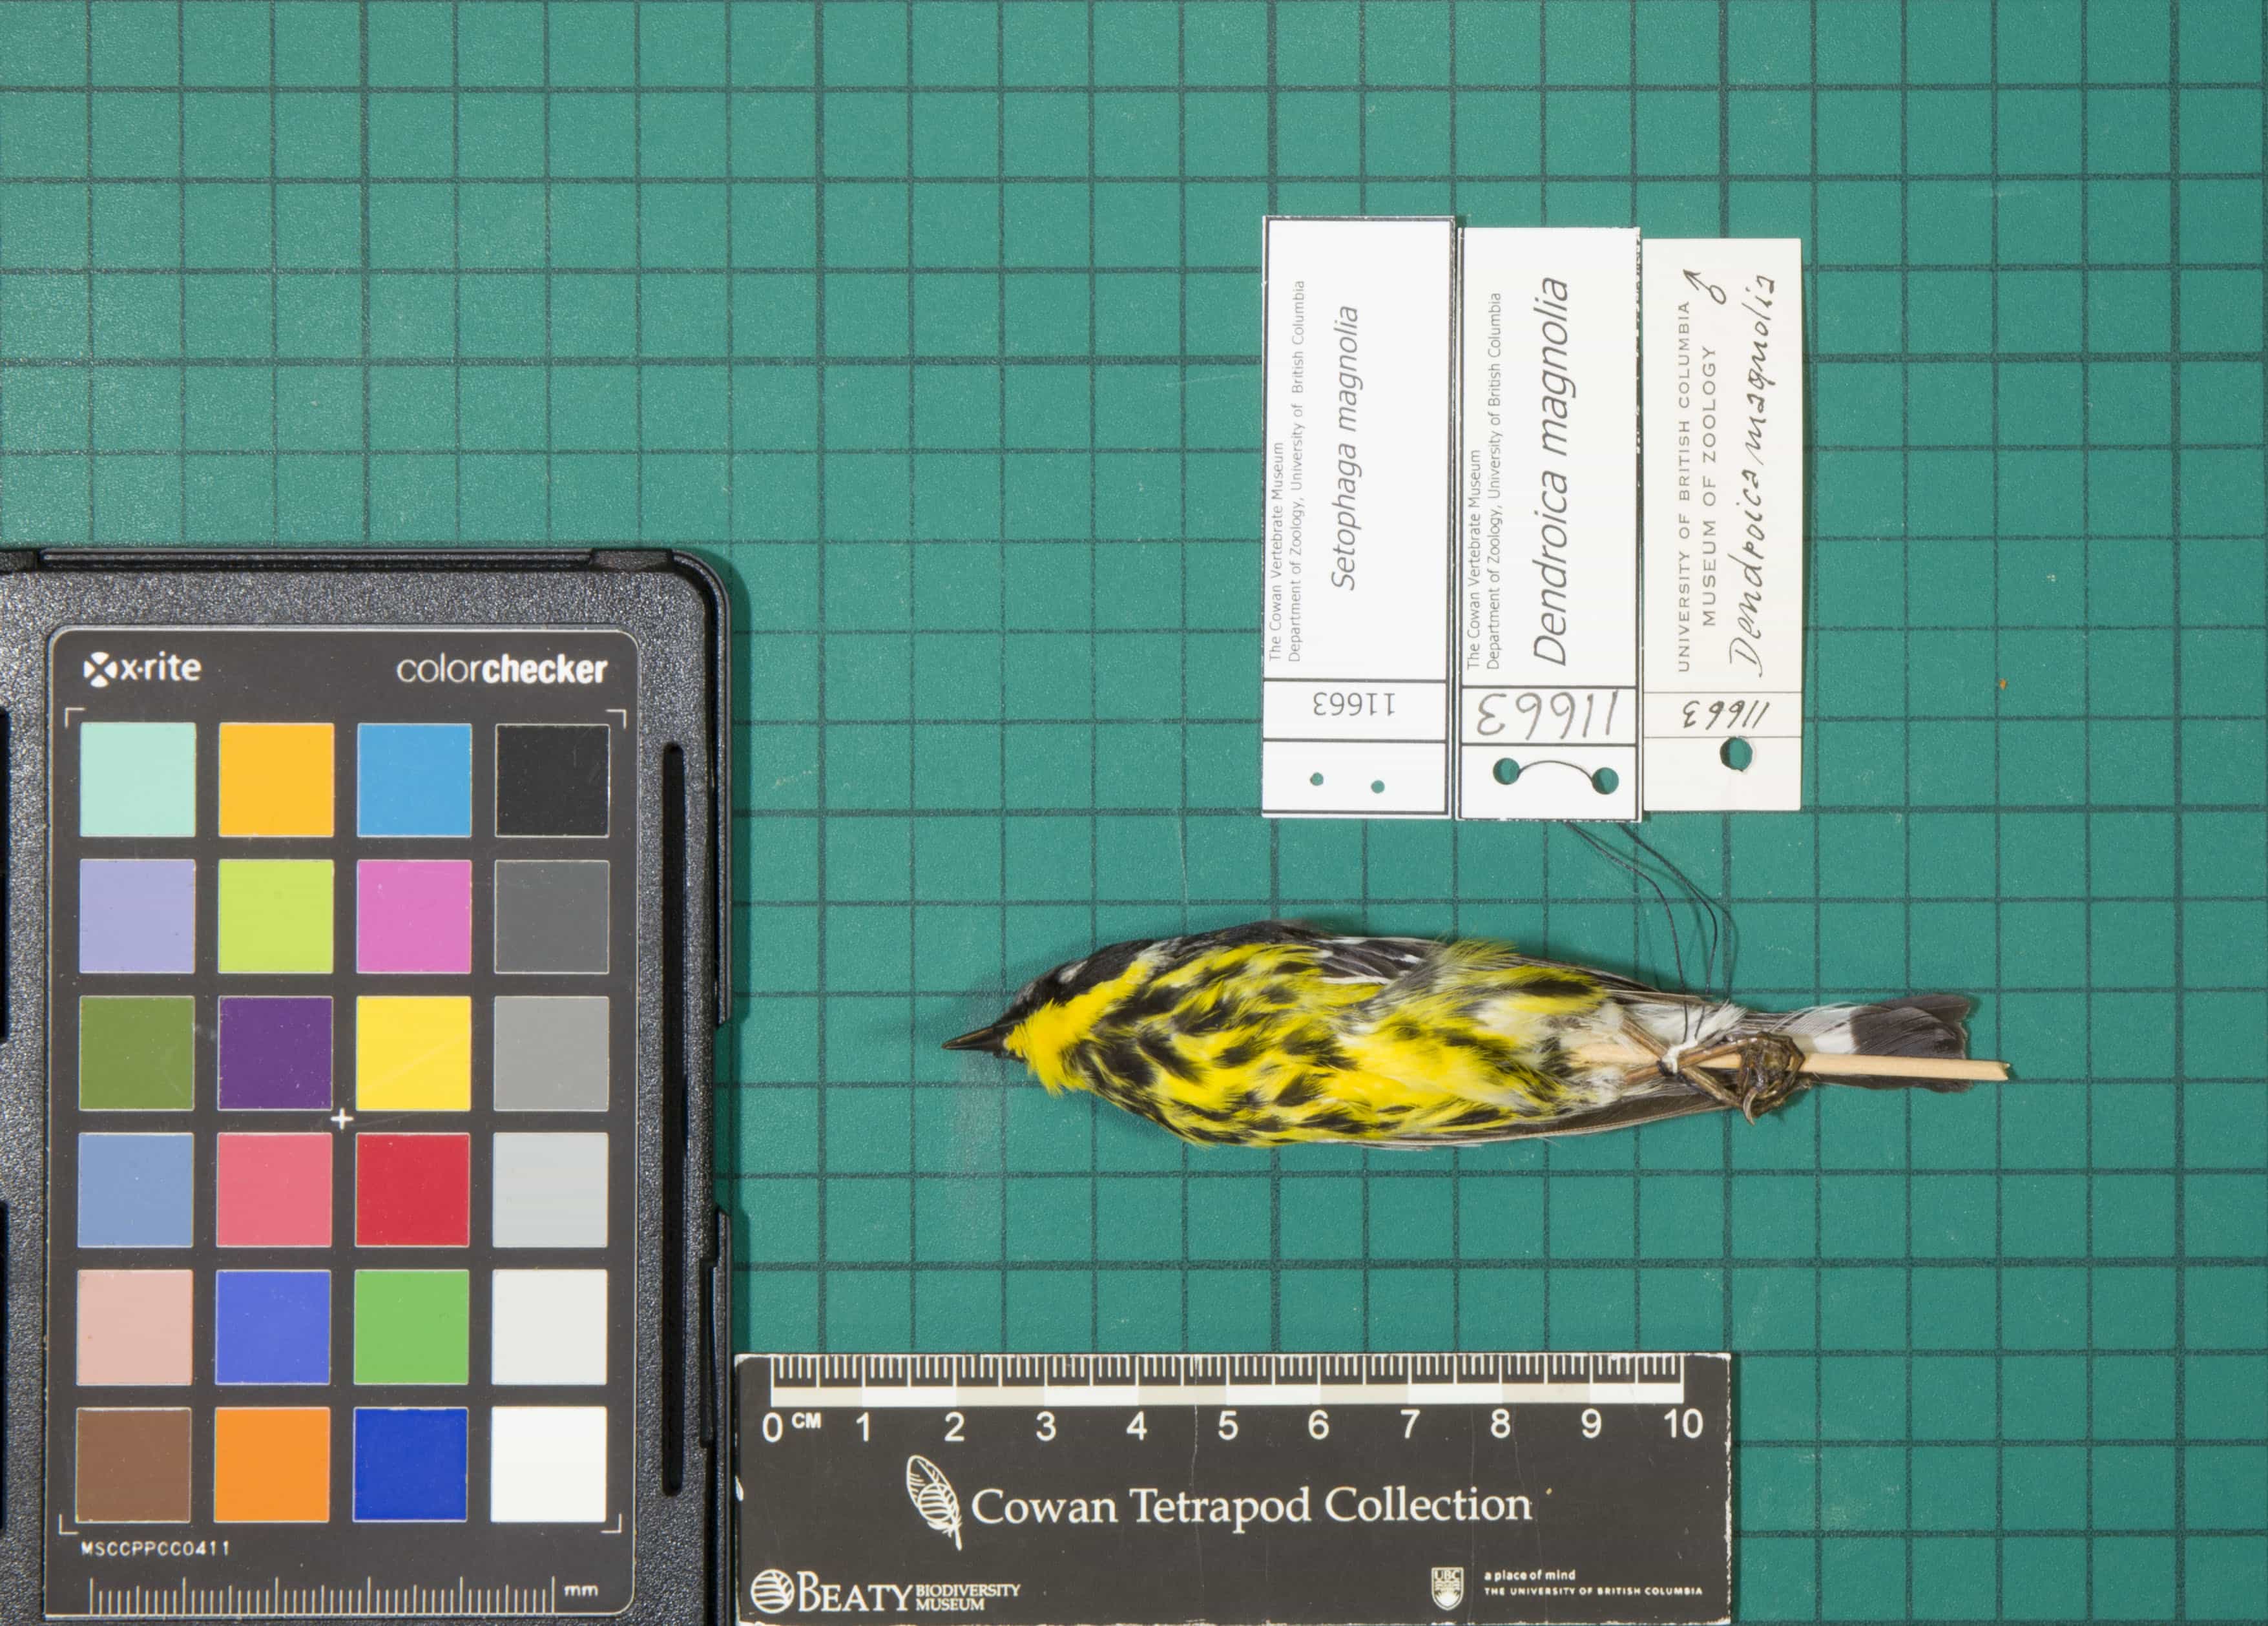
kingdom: Animalia
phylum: Chordata
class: Aves
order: Passeriformes
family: Parulidae
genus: Setophaga
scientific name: Setophaga magnolia
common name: Magnolia Warbler
